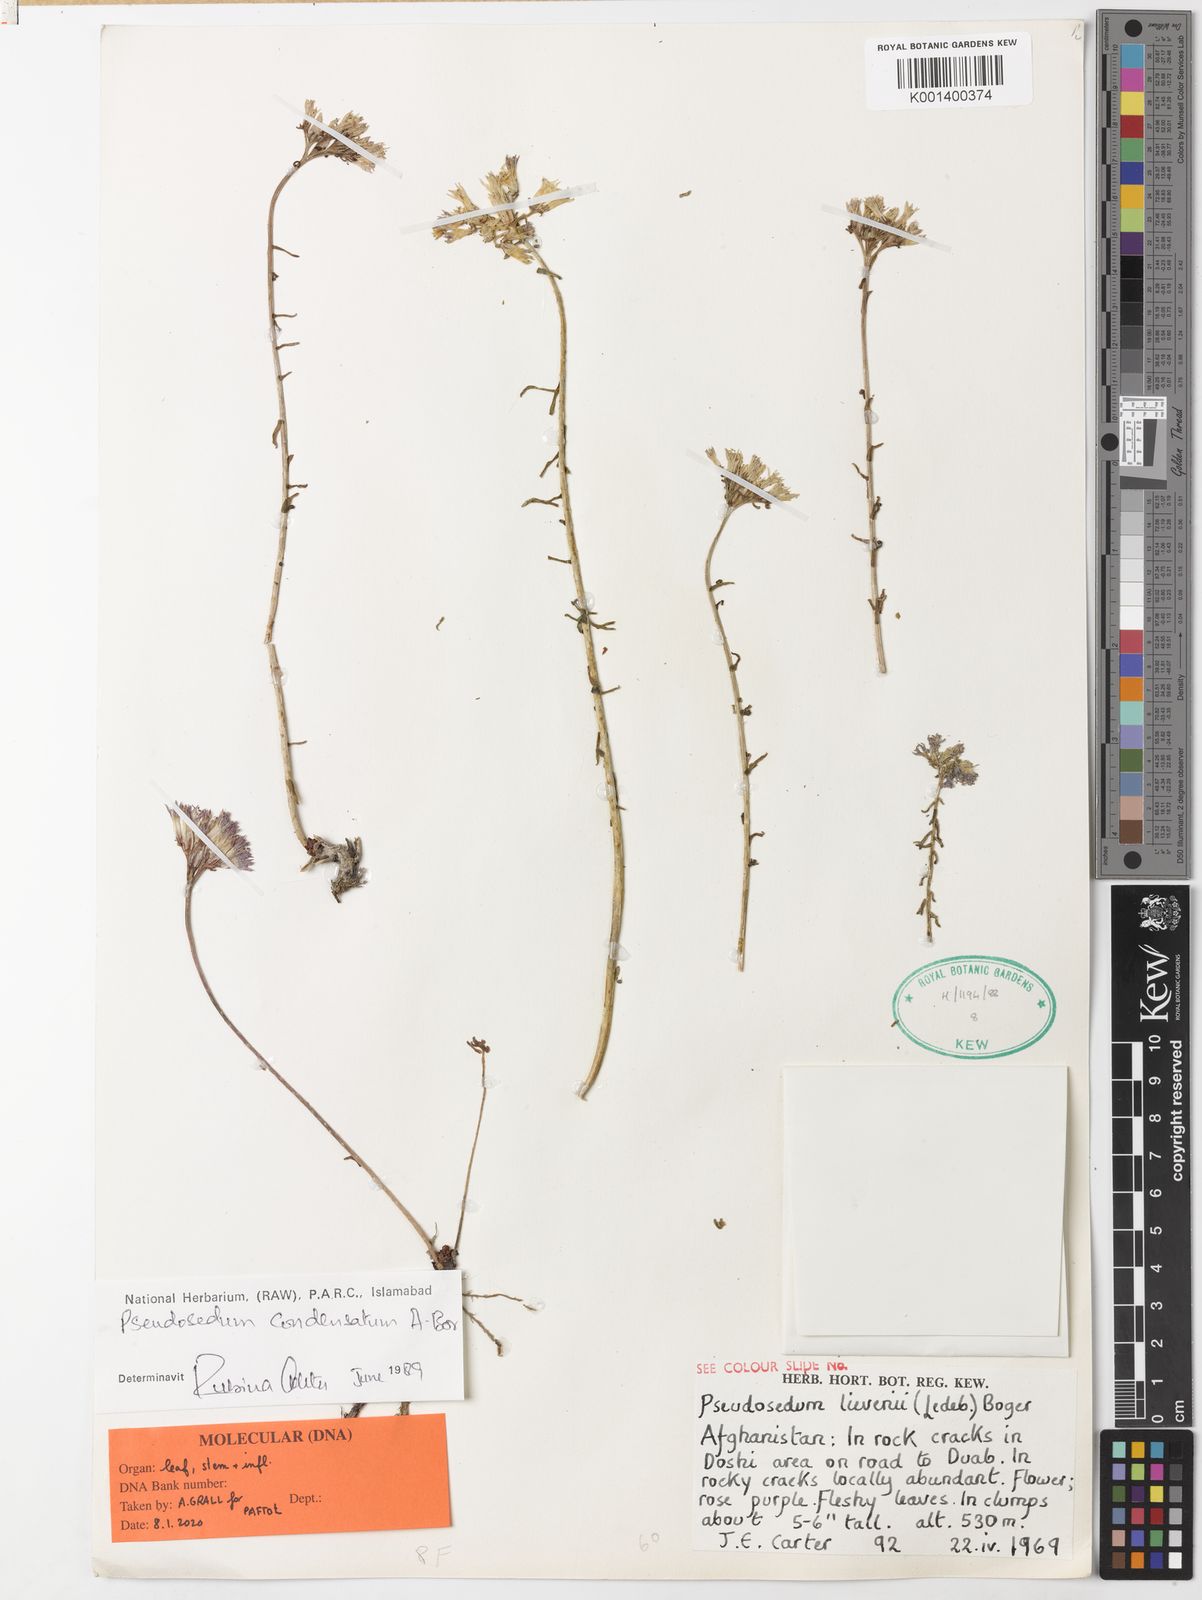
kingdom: Plantae
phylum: Tracheophyta
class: Magnoliopsida
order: Saxifragales
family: Crassulaceae
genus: Pseudosedum
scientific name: Pseudosedum condensatum
